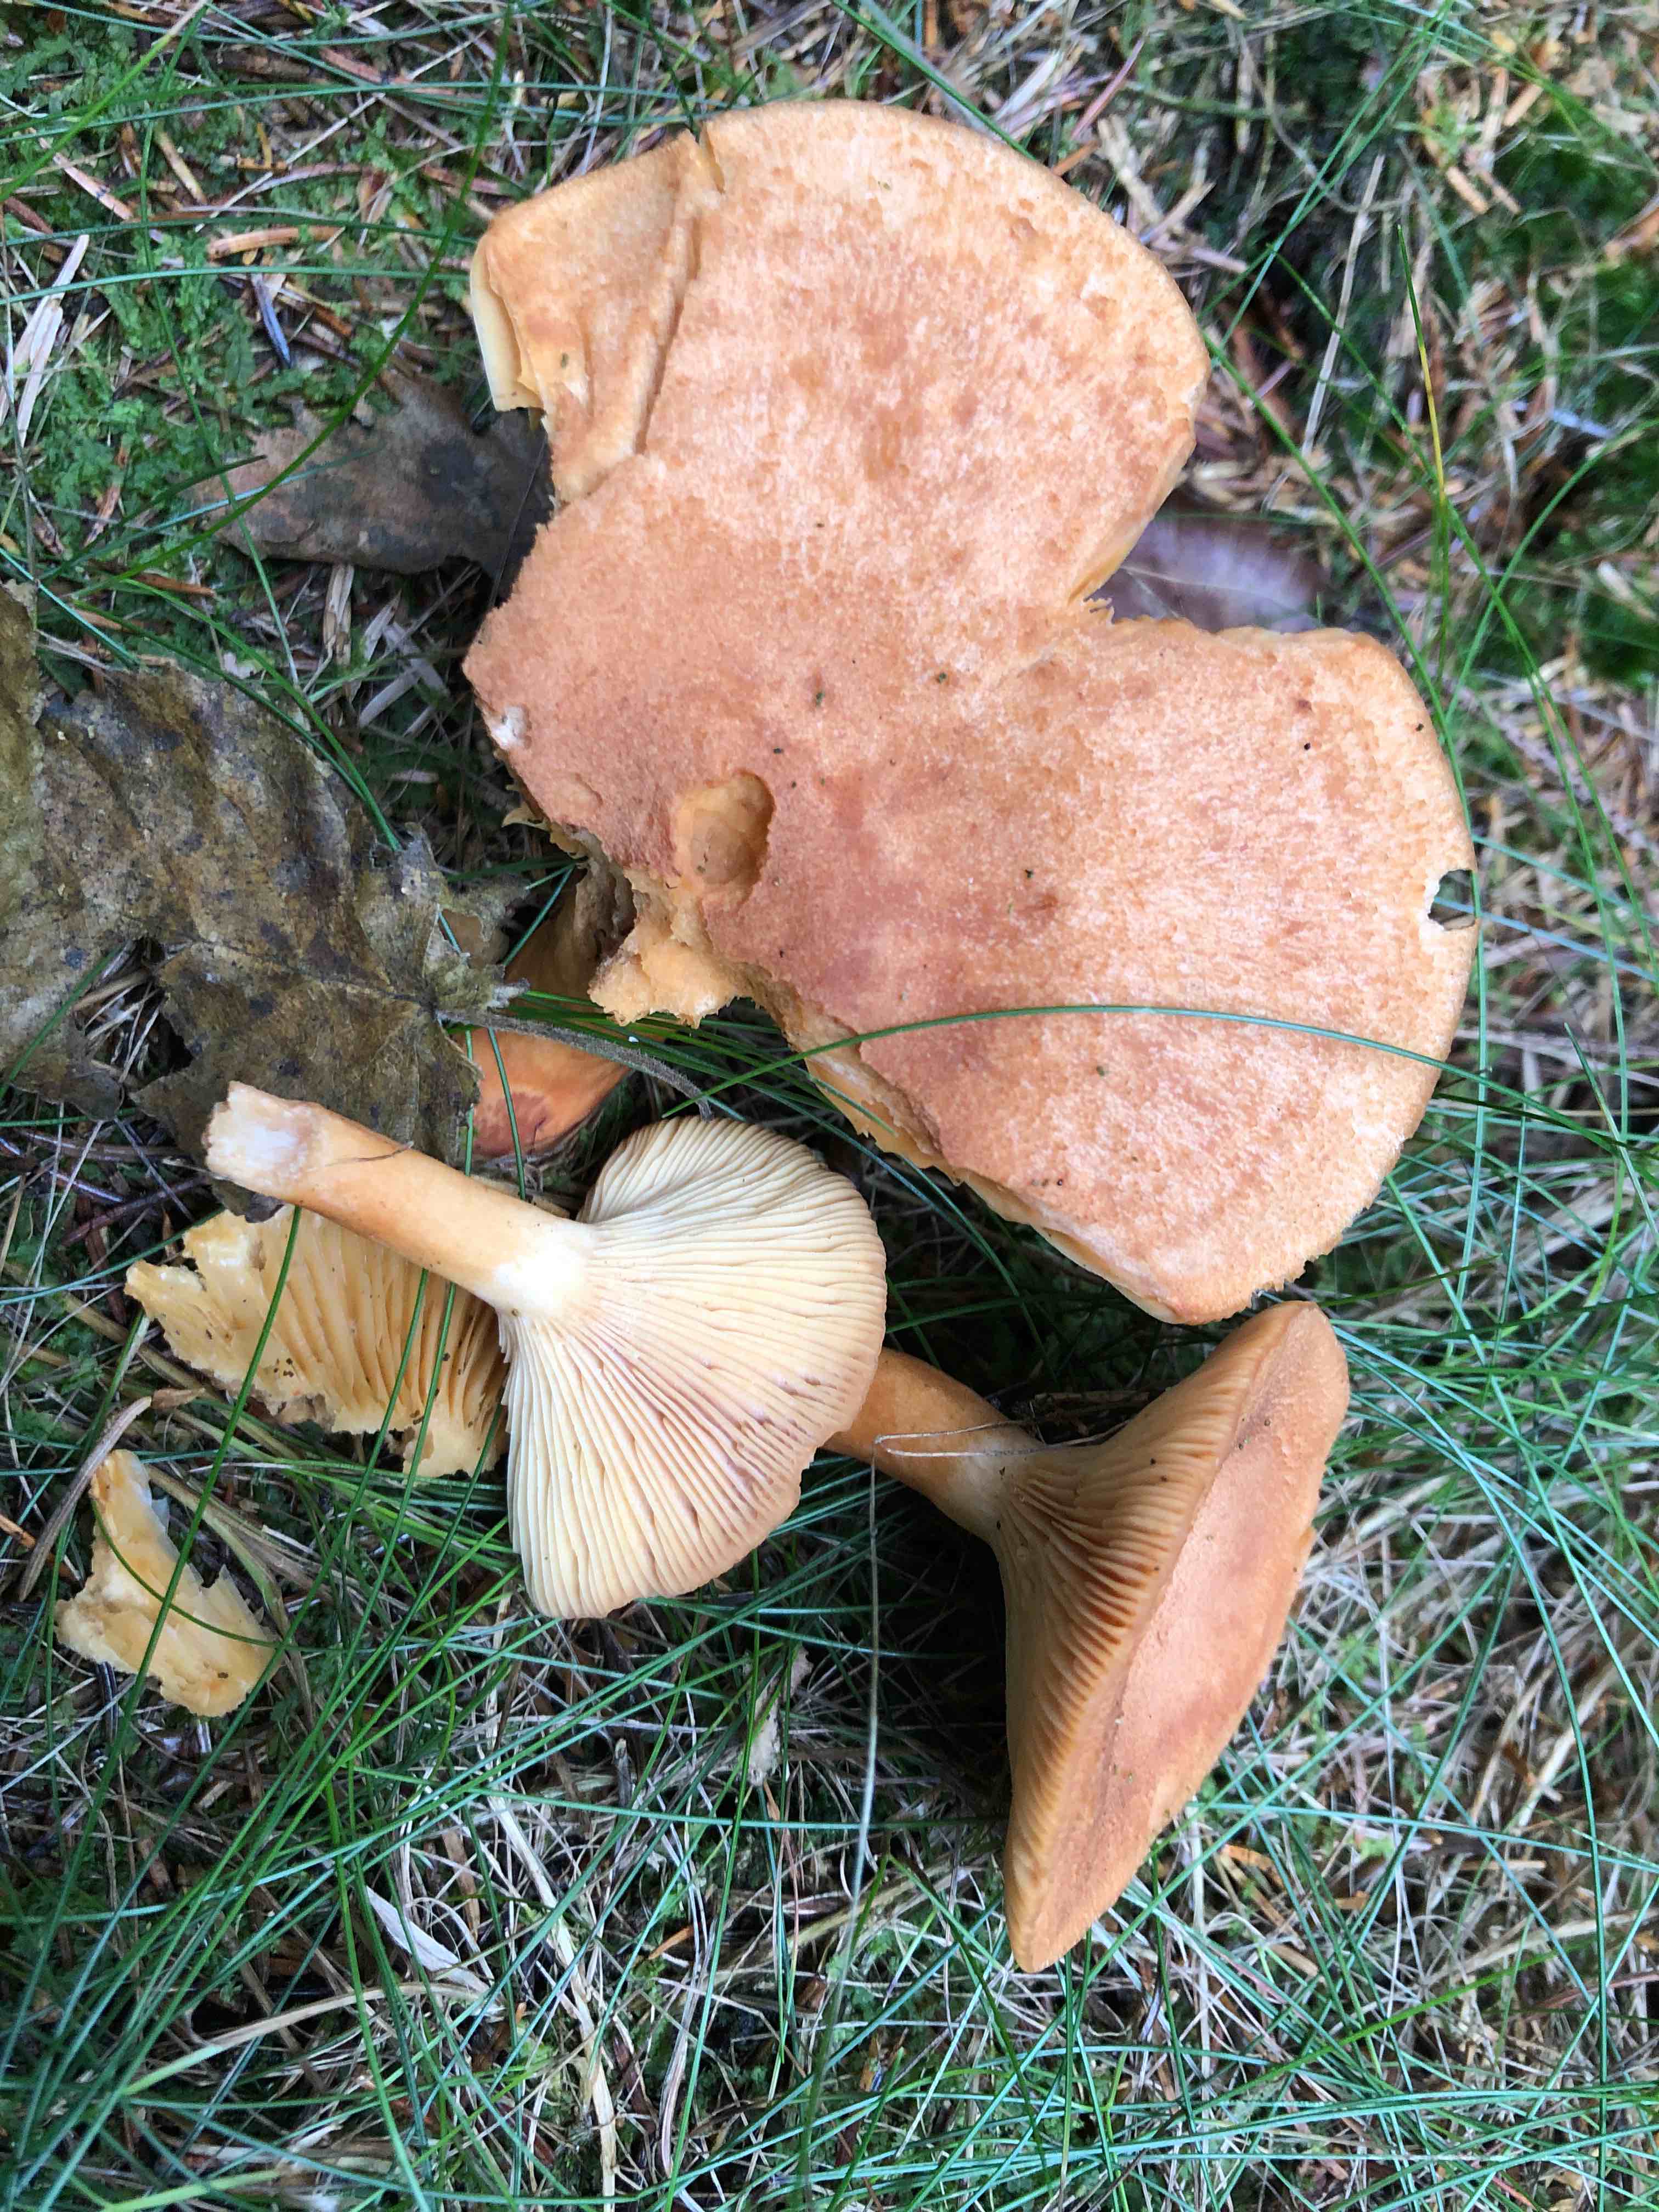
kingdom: Fungi
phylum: Basidiomycota
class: Agaricomycetes
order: Russulales
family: Russulaceae
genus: Lactarius
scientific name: Lactarius helvus
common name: mose-mælkehat
